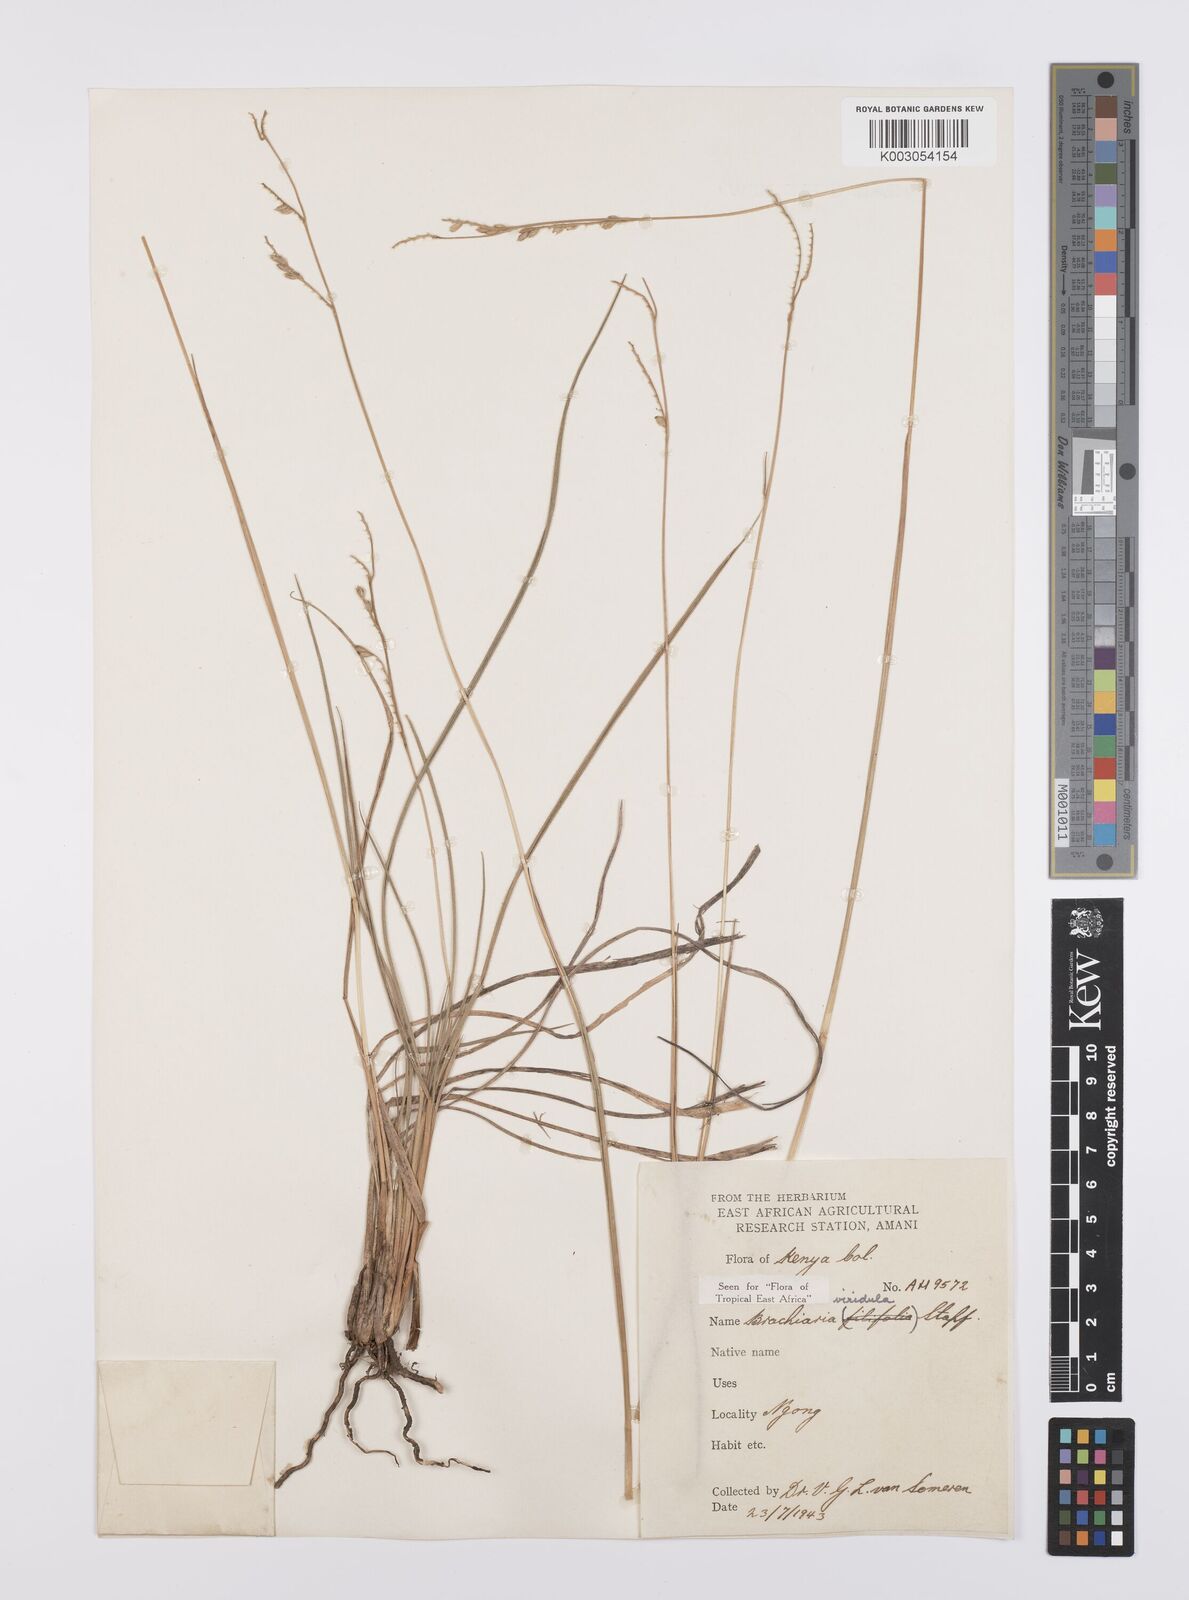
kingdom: Plantae
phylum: Tracheophyta
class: Liliopsida
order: Poales
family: Poaceae
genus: Urochloa
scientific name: Urochloa bovonei
